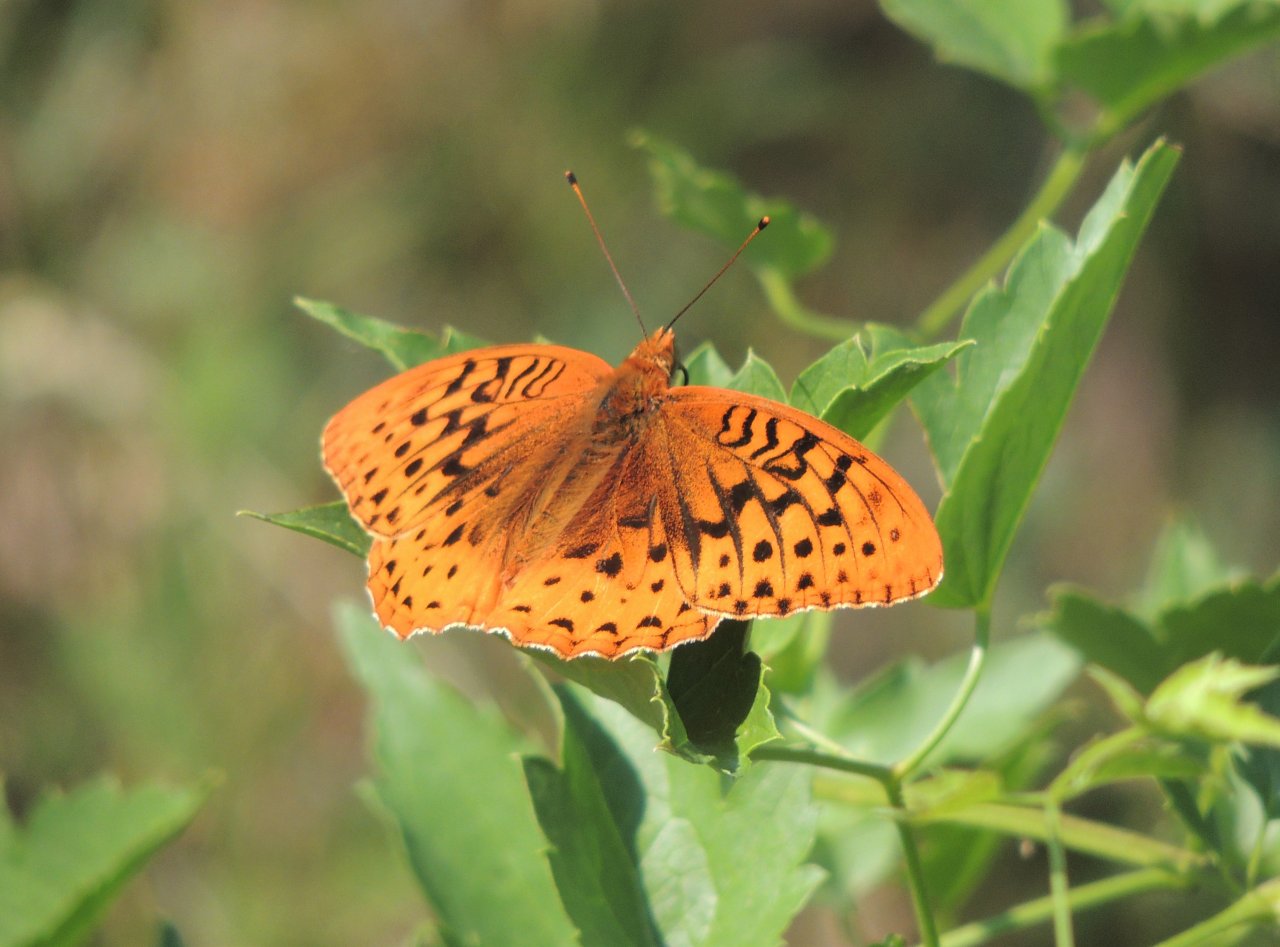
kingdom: Animalia
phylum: Arthropoda
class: Insecta
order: Lepidoptera
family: Nymphalidae
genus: Speyeria
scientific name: Speyeria cybele
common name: Great Spangled Fritillary
